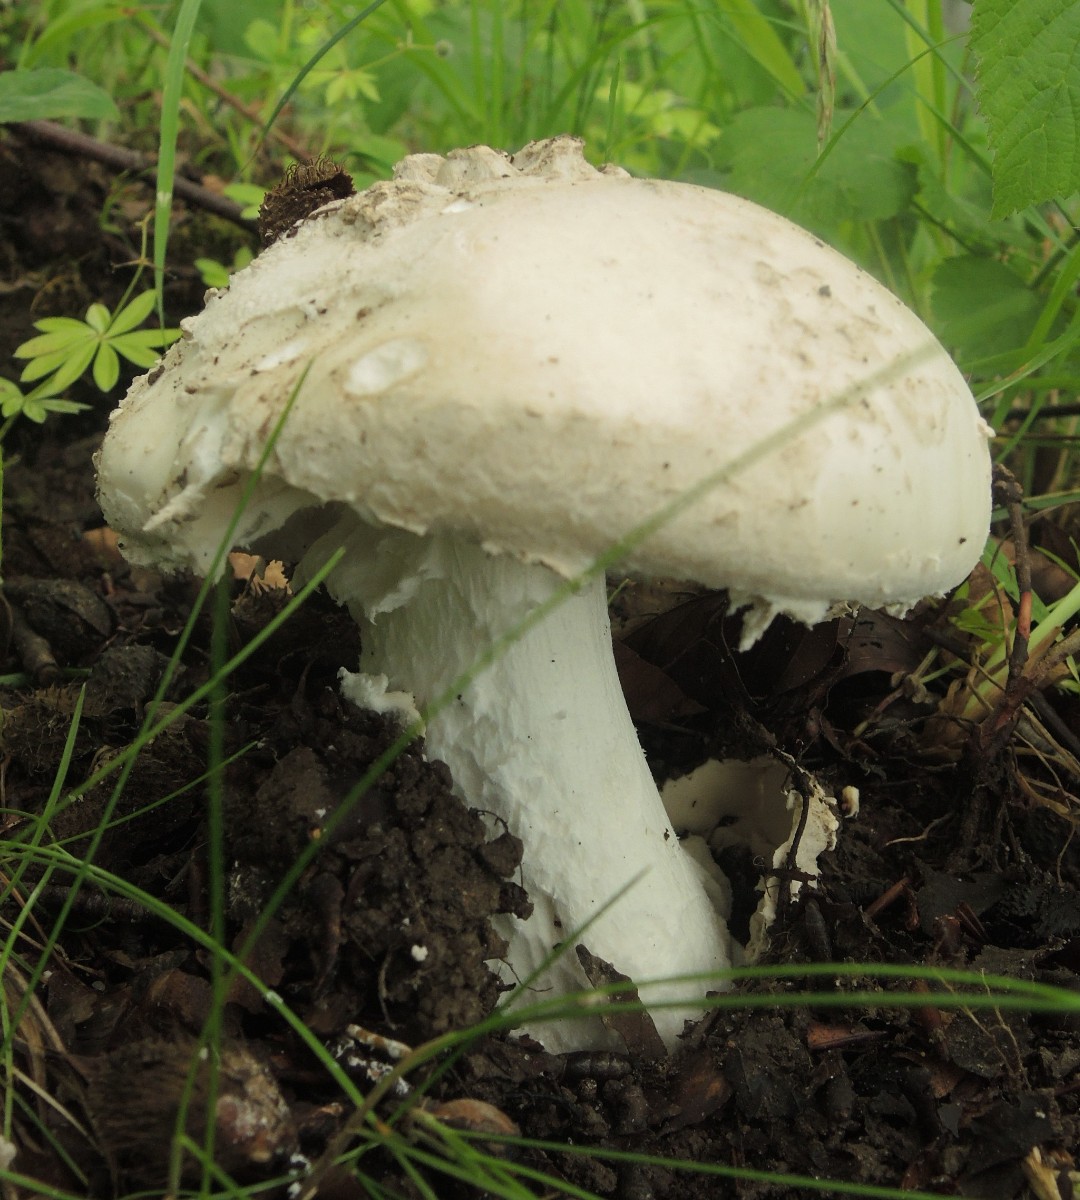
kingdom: Fungi
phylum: Basidiomycota
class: Agaricomycetes
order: Agaricales
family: Amanitaceae
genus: Amanita
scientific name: Amanita
